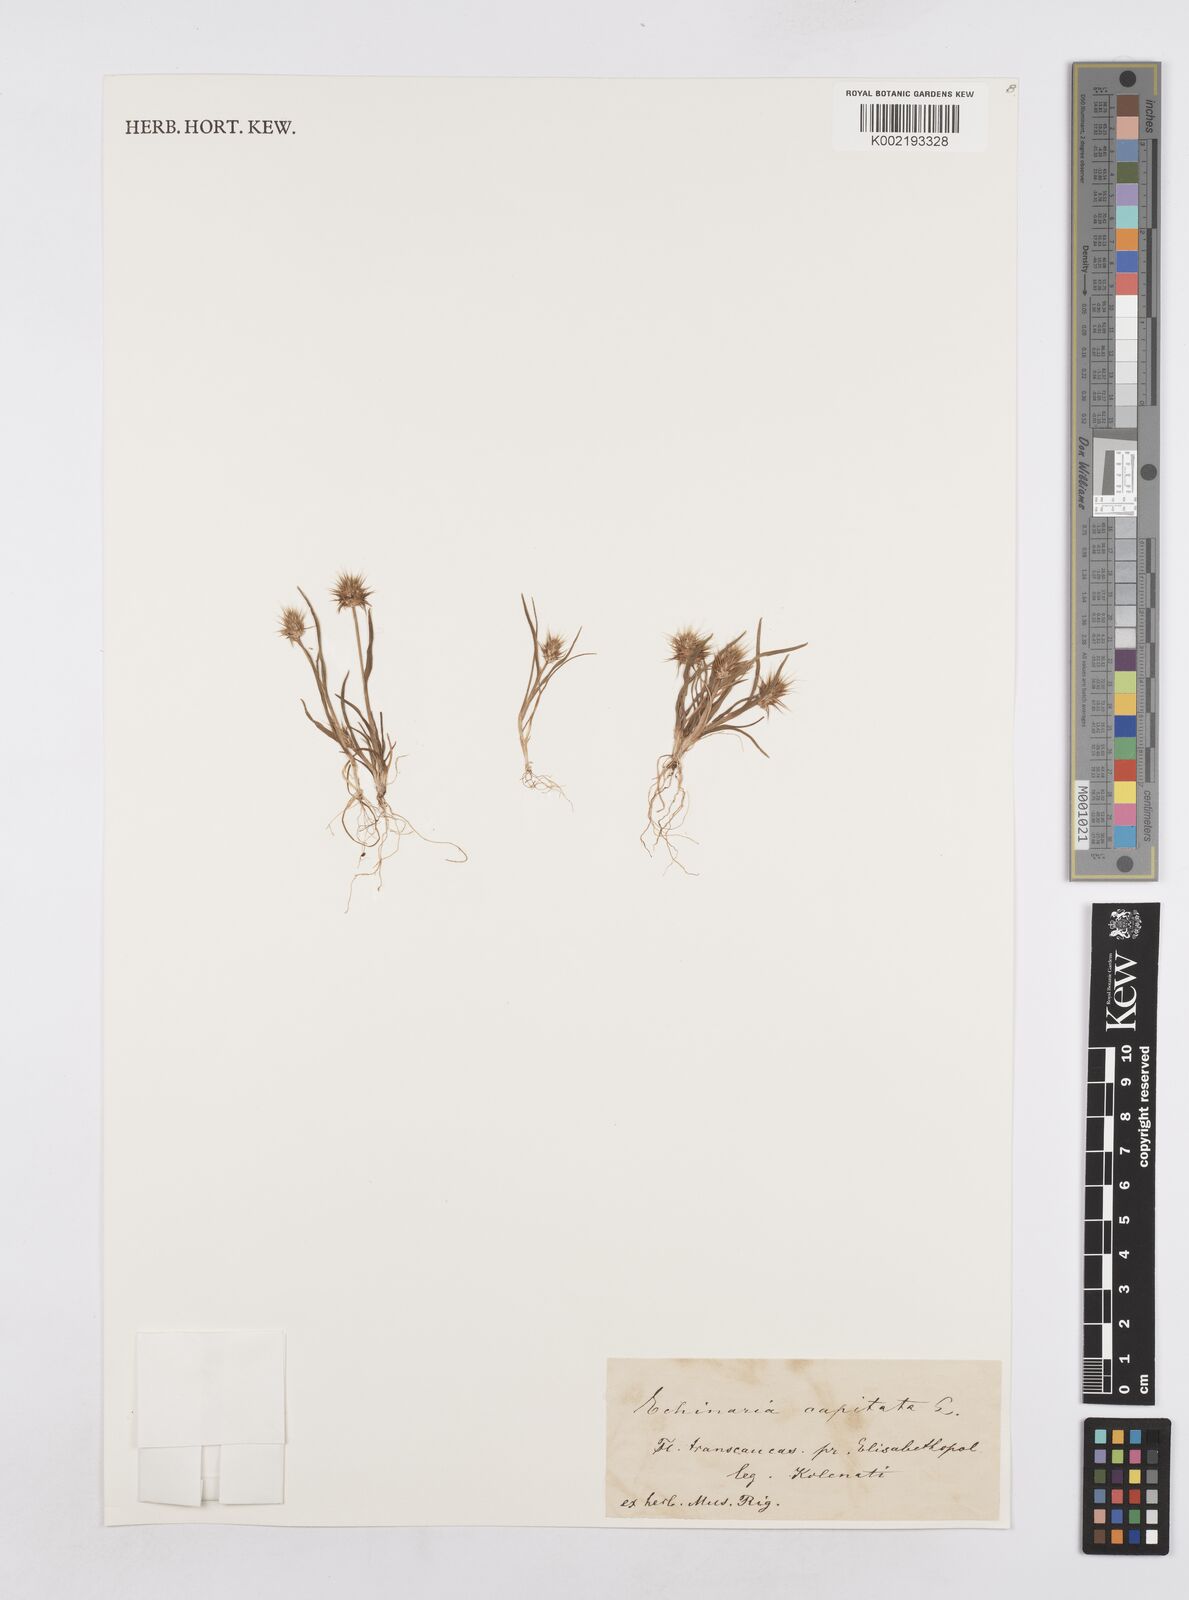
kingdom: Plantae
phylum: Tracheophyta
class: Liliopsida
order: Poales
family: Poaceae
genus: Echinaria
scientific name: Echinaria capitata
